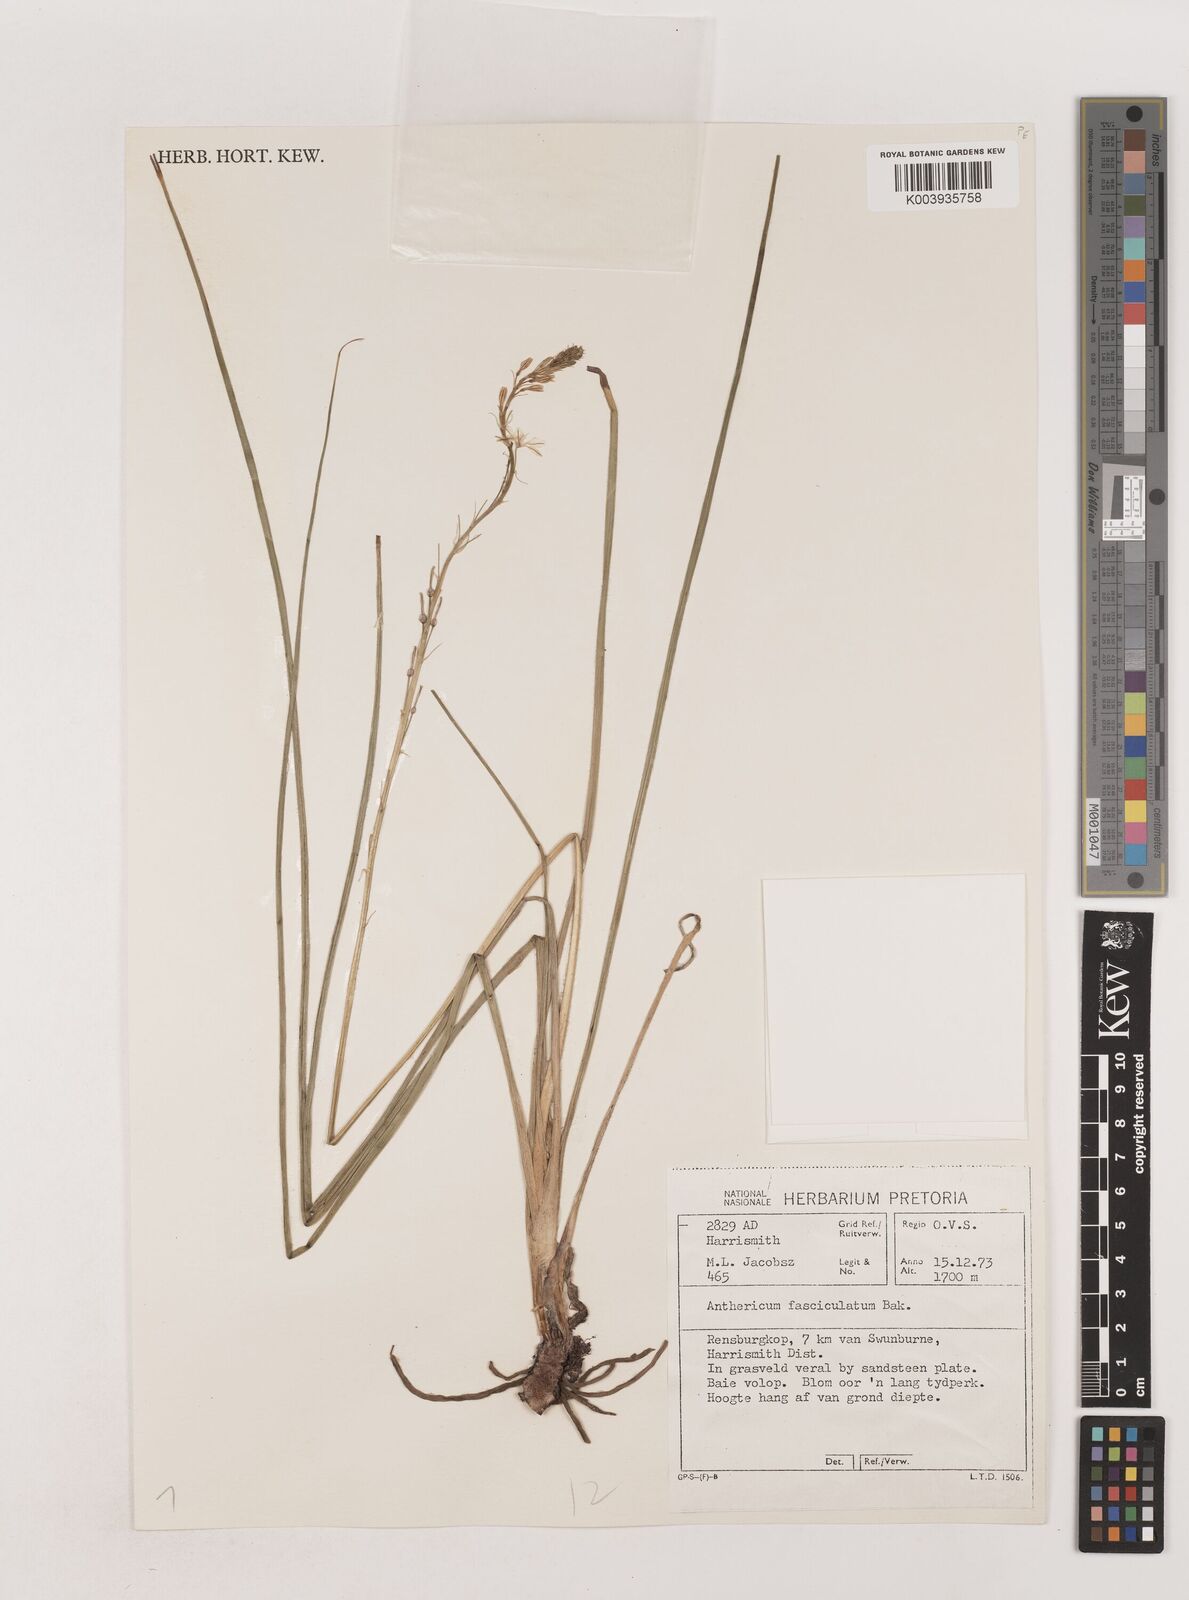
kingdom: Plantae
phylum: Tracheophyta
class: Liliopsida
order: Asparagales
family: Asparagaceae
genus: Chlorophytum
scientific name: Chlorophytum fasciculatum
